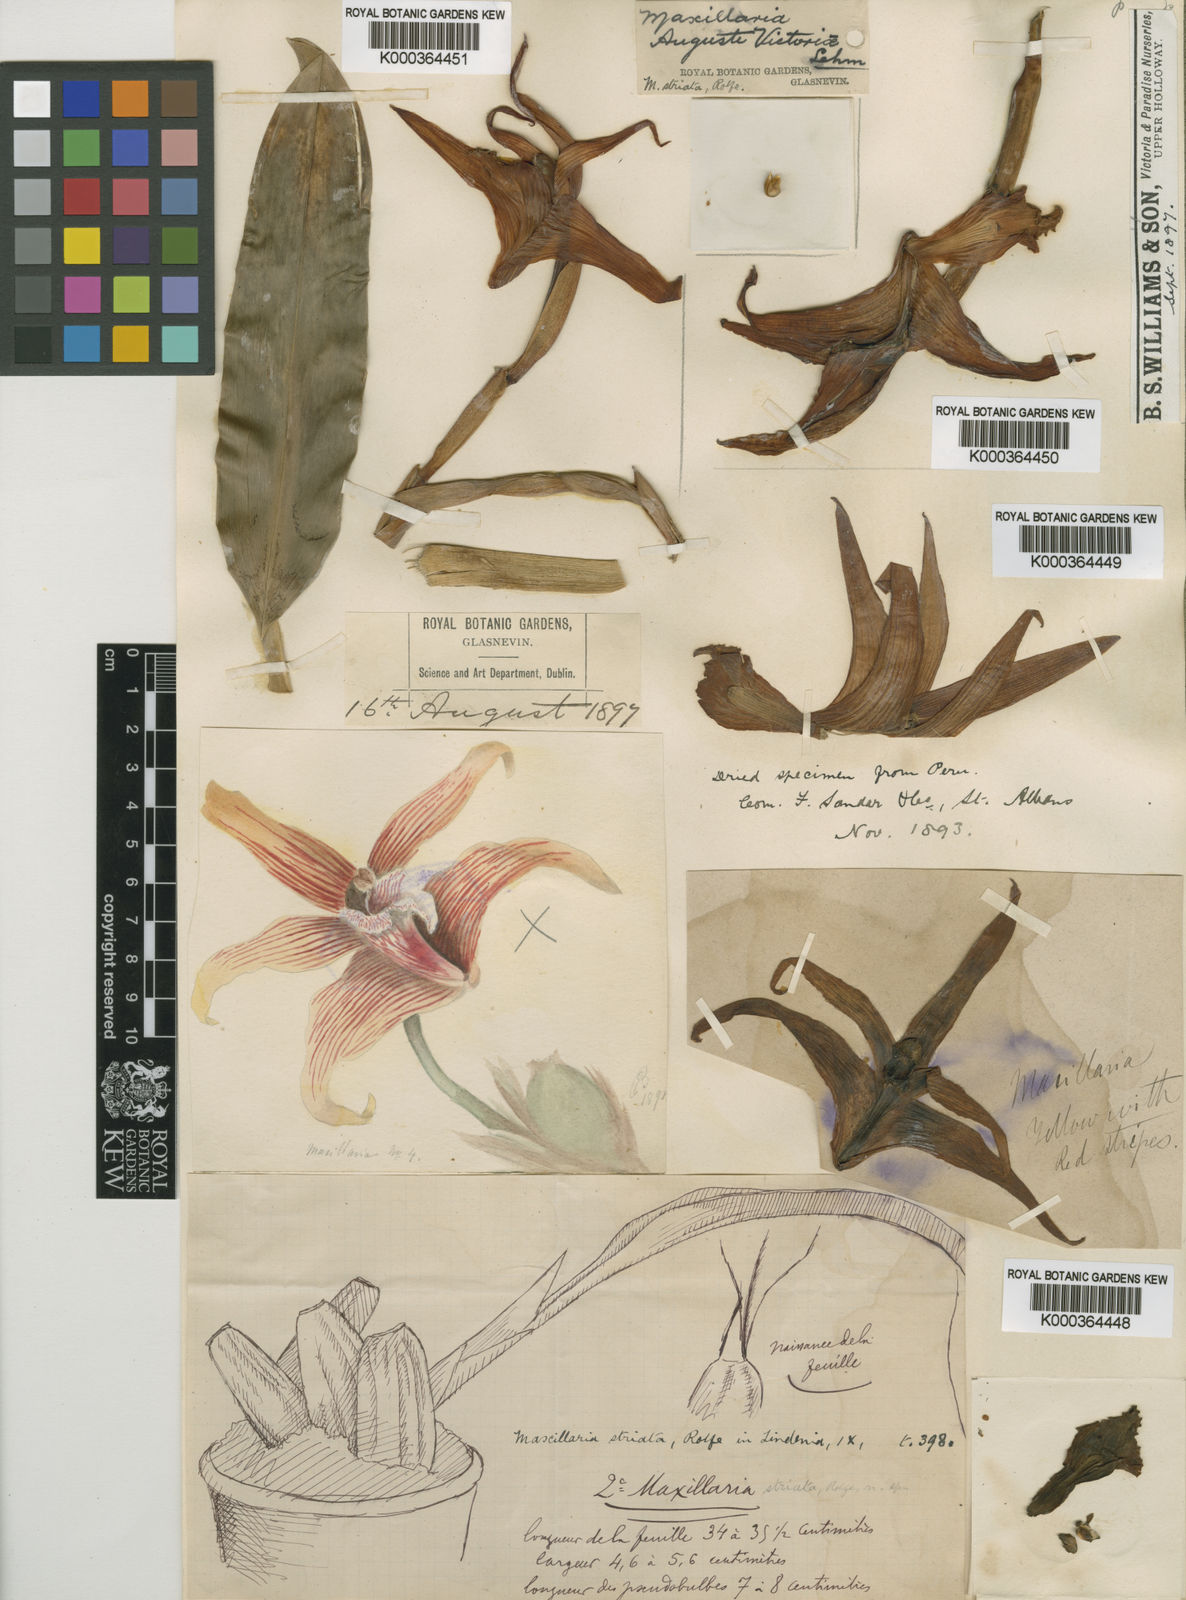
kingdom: Plantae
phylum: Tracheophyta
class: Liliopsida
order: Asparagales
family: Orchidaceae
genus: Maxillaria
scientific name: Maxillaria striata
